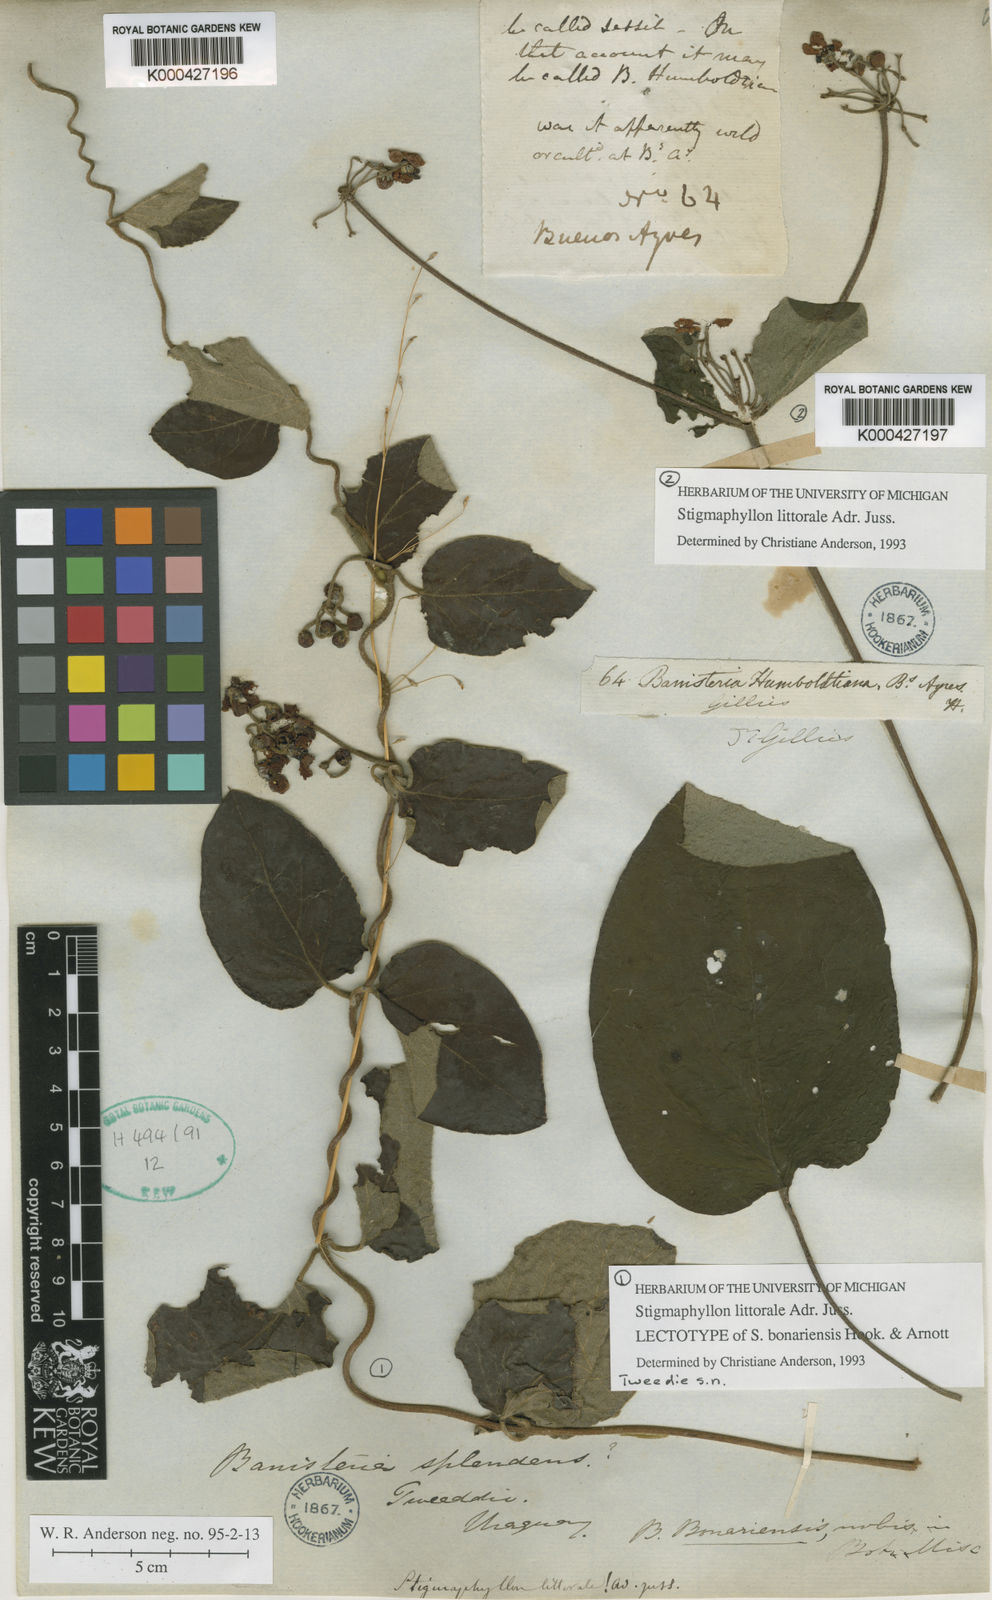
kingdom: Plantae
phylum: Tracheophyta
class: Magnoliopsida
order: Malpighiales
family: Malpighiaceae
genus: Stigmaphyllon
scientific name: Stigmaphyllon bonariense
